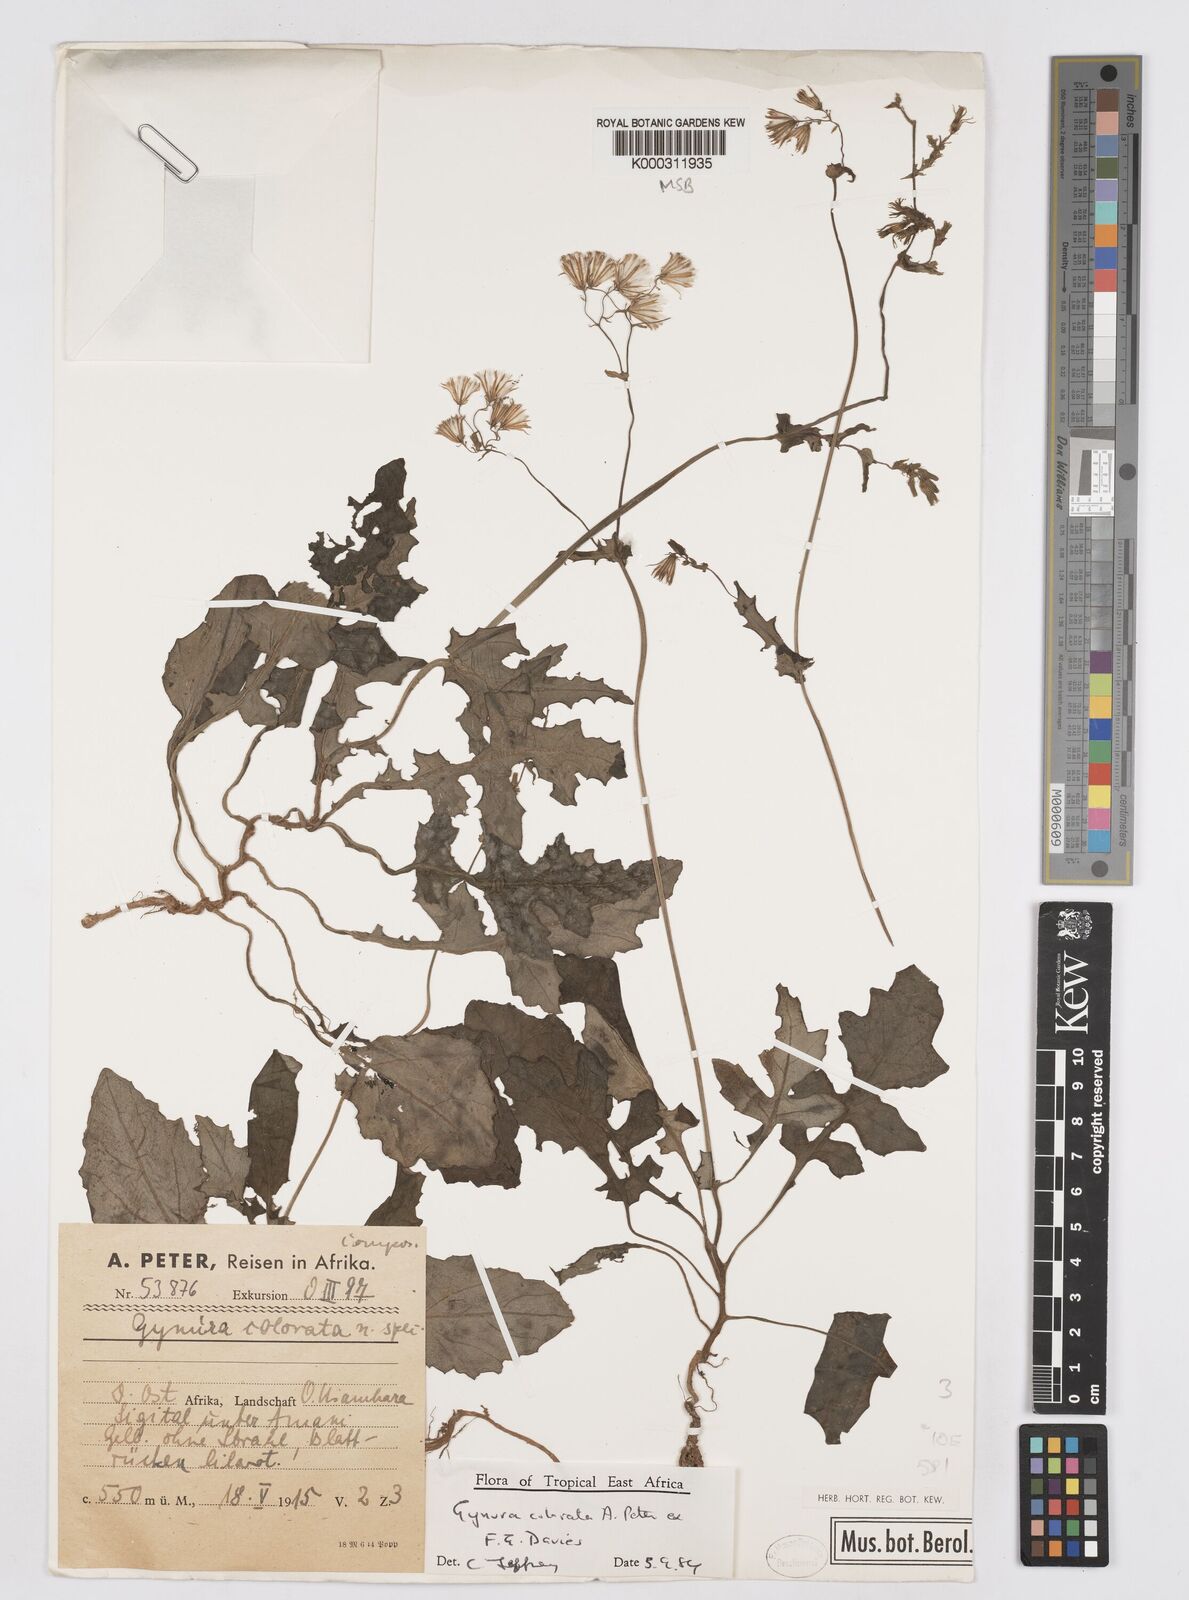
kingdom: Plantae
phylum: Tracheophyta
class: Magnoliopsida
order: Asterales
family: Asteraceae
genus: Gynura
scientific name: Gynura colorata
